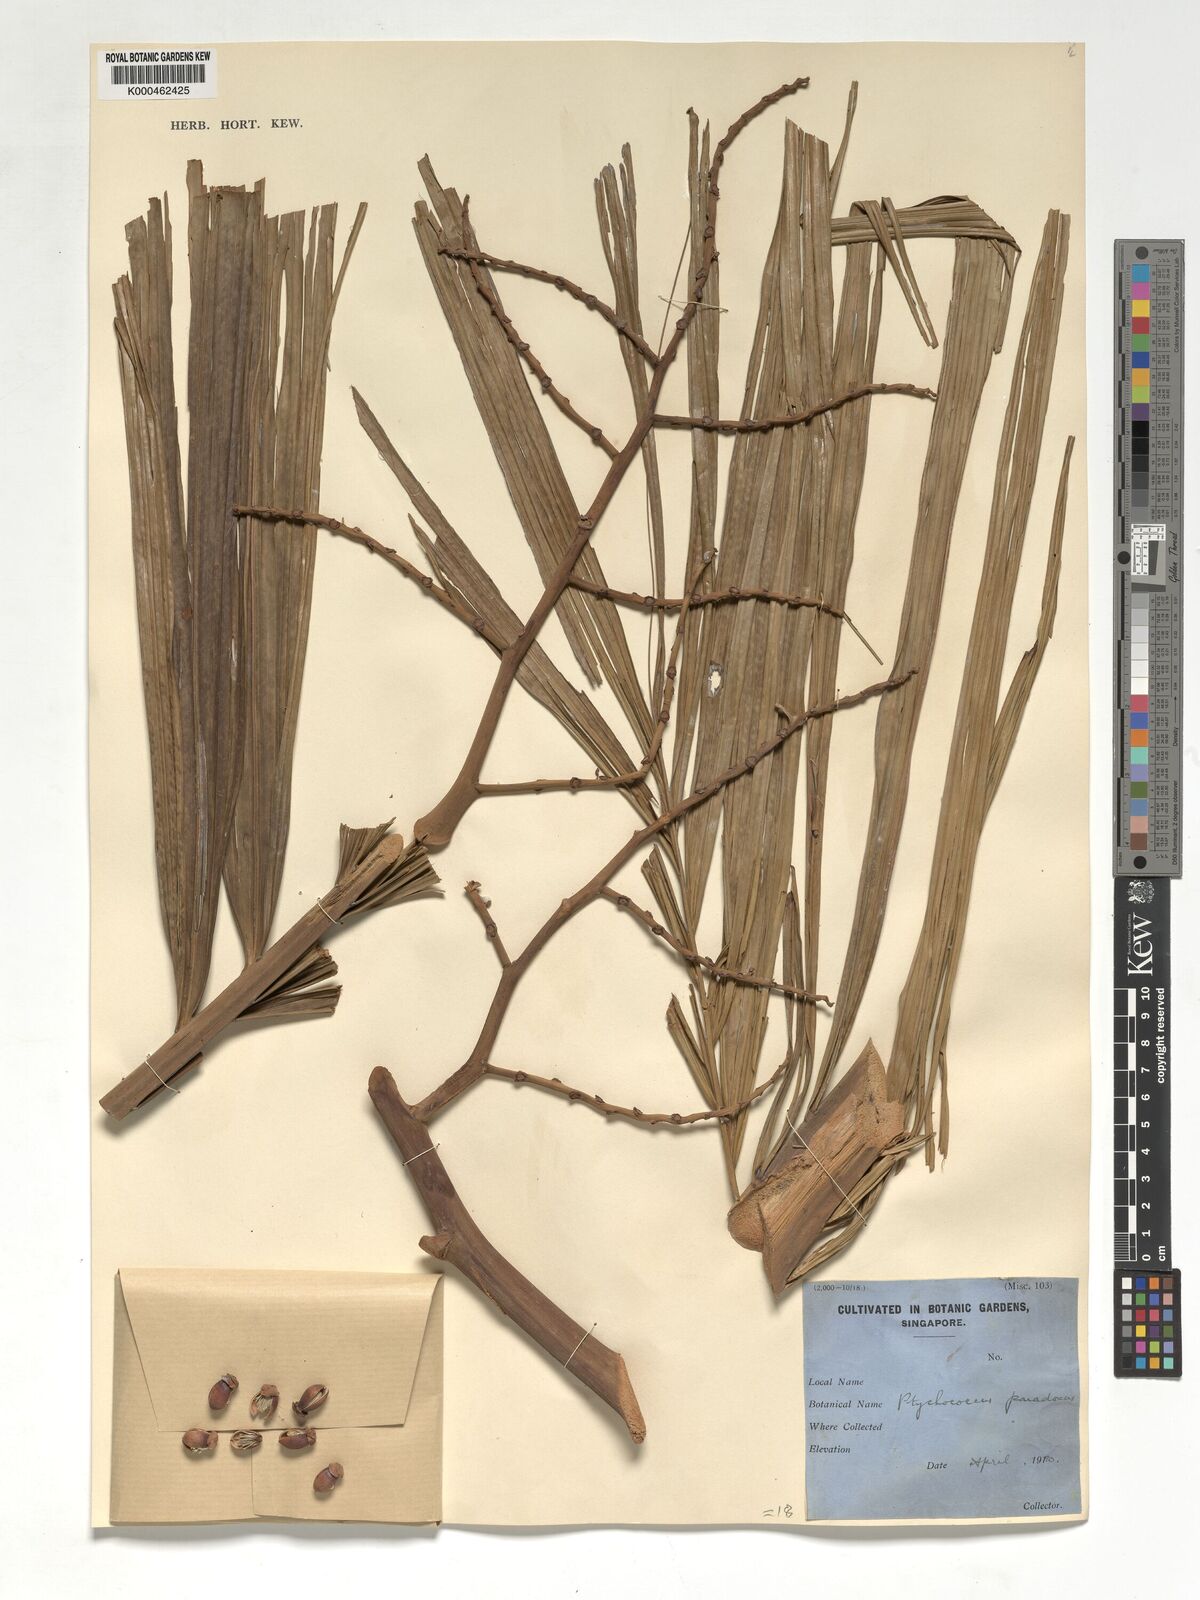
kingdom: Plantae
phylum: Tracheophyta
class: Liliopsida
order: Arecales
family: Arecaceae
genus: Ptychococcus
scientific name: Ptychococcus paradoxus
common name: Wrinkled-fruit palm
